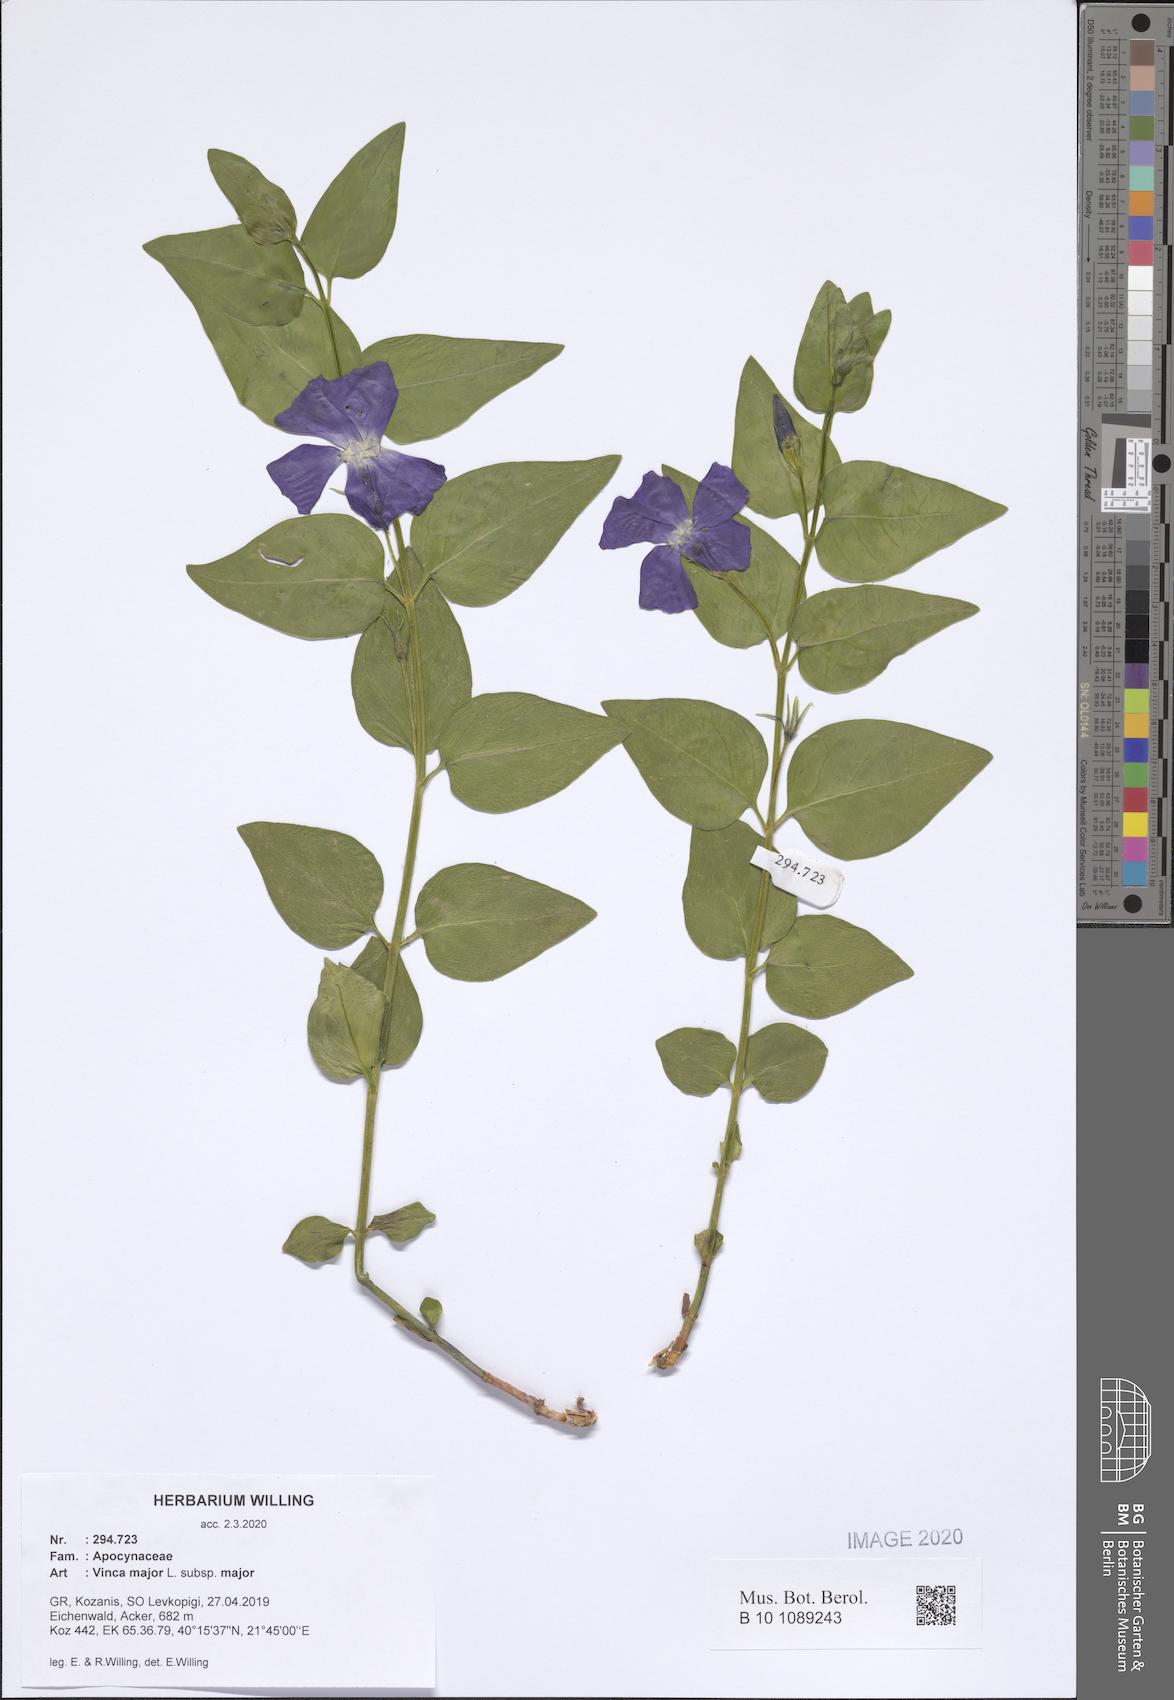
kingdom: Plantae
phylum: Tracheophyta
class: Magnoliopsida
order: Gentianales
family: Apocynaceae
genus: Vinca
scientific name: Vinca major
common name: Greater periwinkle
